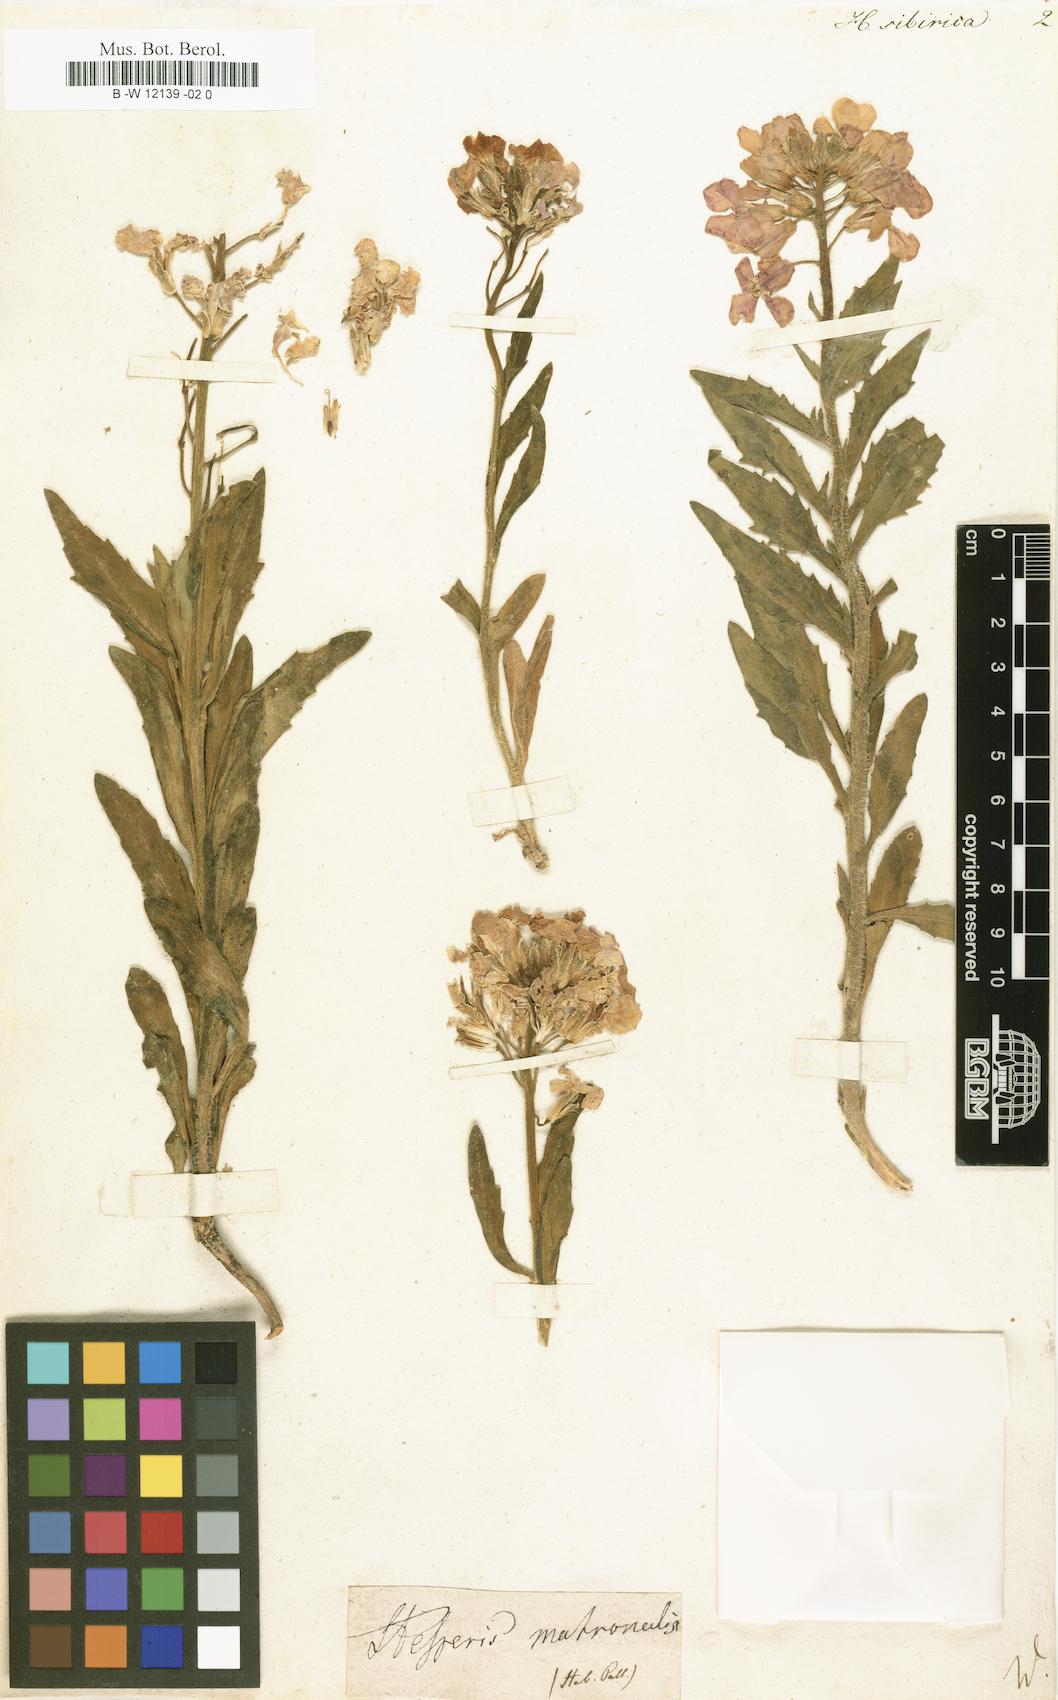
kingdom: Plantae
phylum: Tracheophyta
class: Magnoliopsida
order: Brassicales
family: Brassicaceae
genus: Hesperis
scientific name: Hesperis sibirica
